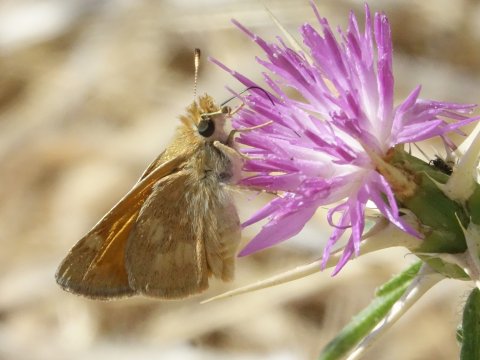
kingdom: Animalia
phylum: Arthropoda
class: Insecta
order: Lepidoptera
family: Hesperiidae
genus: Ochlodes
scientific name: Ochlodes sylvanoides
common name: Woodland Skipper
